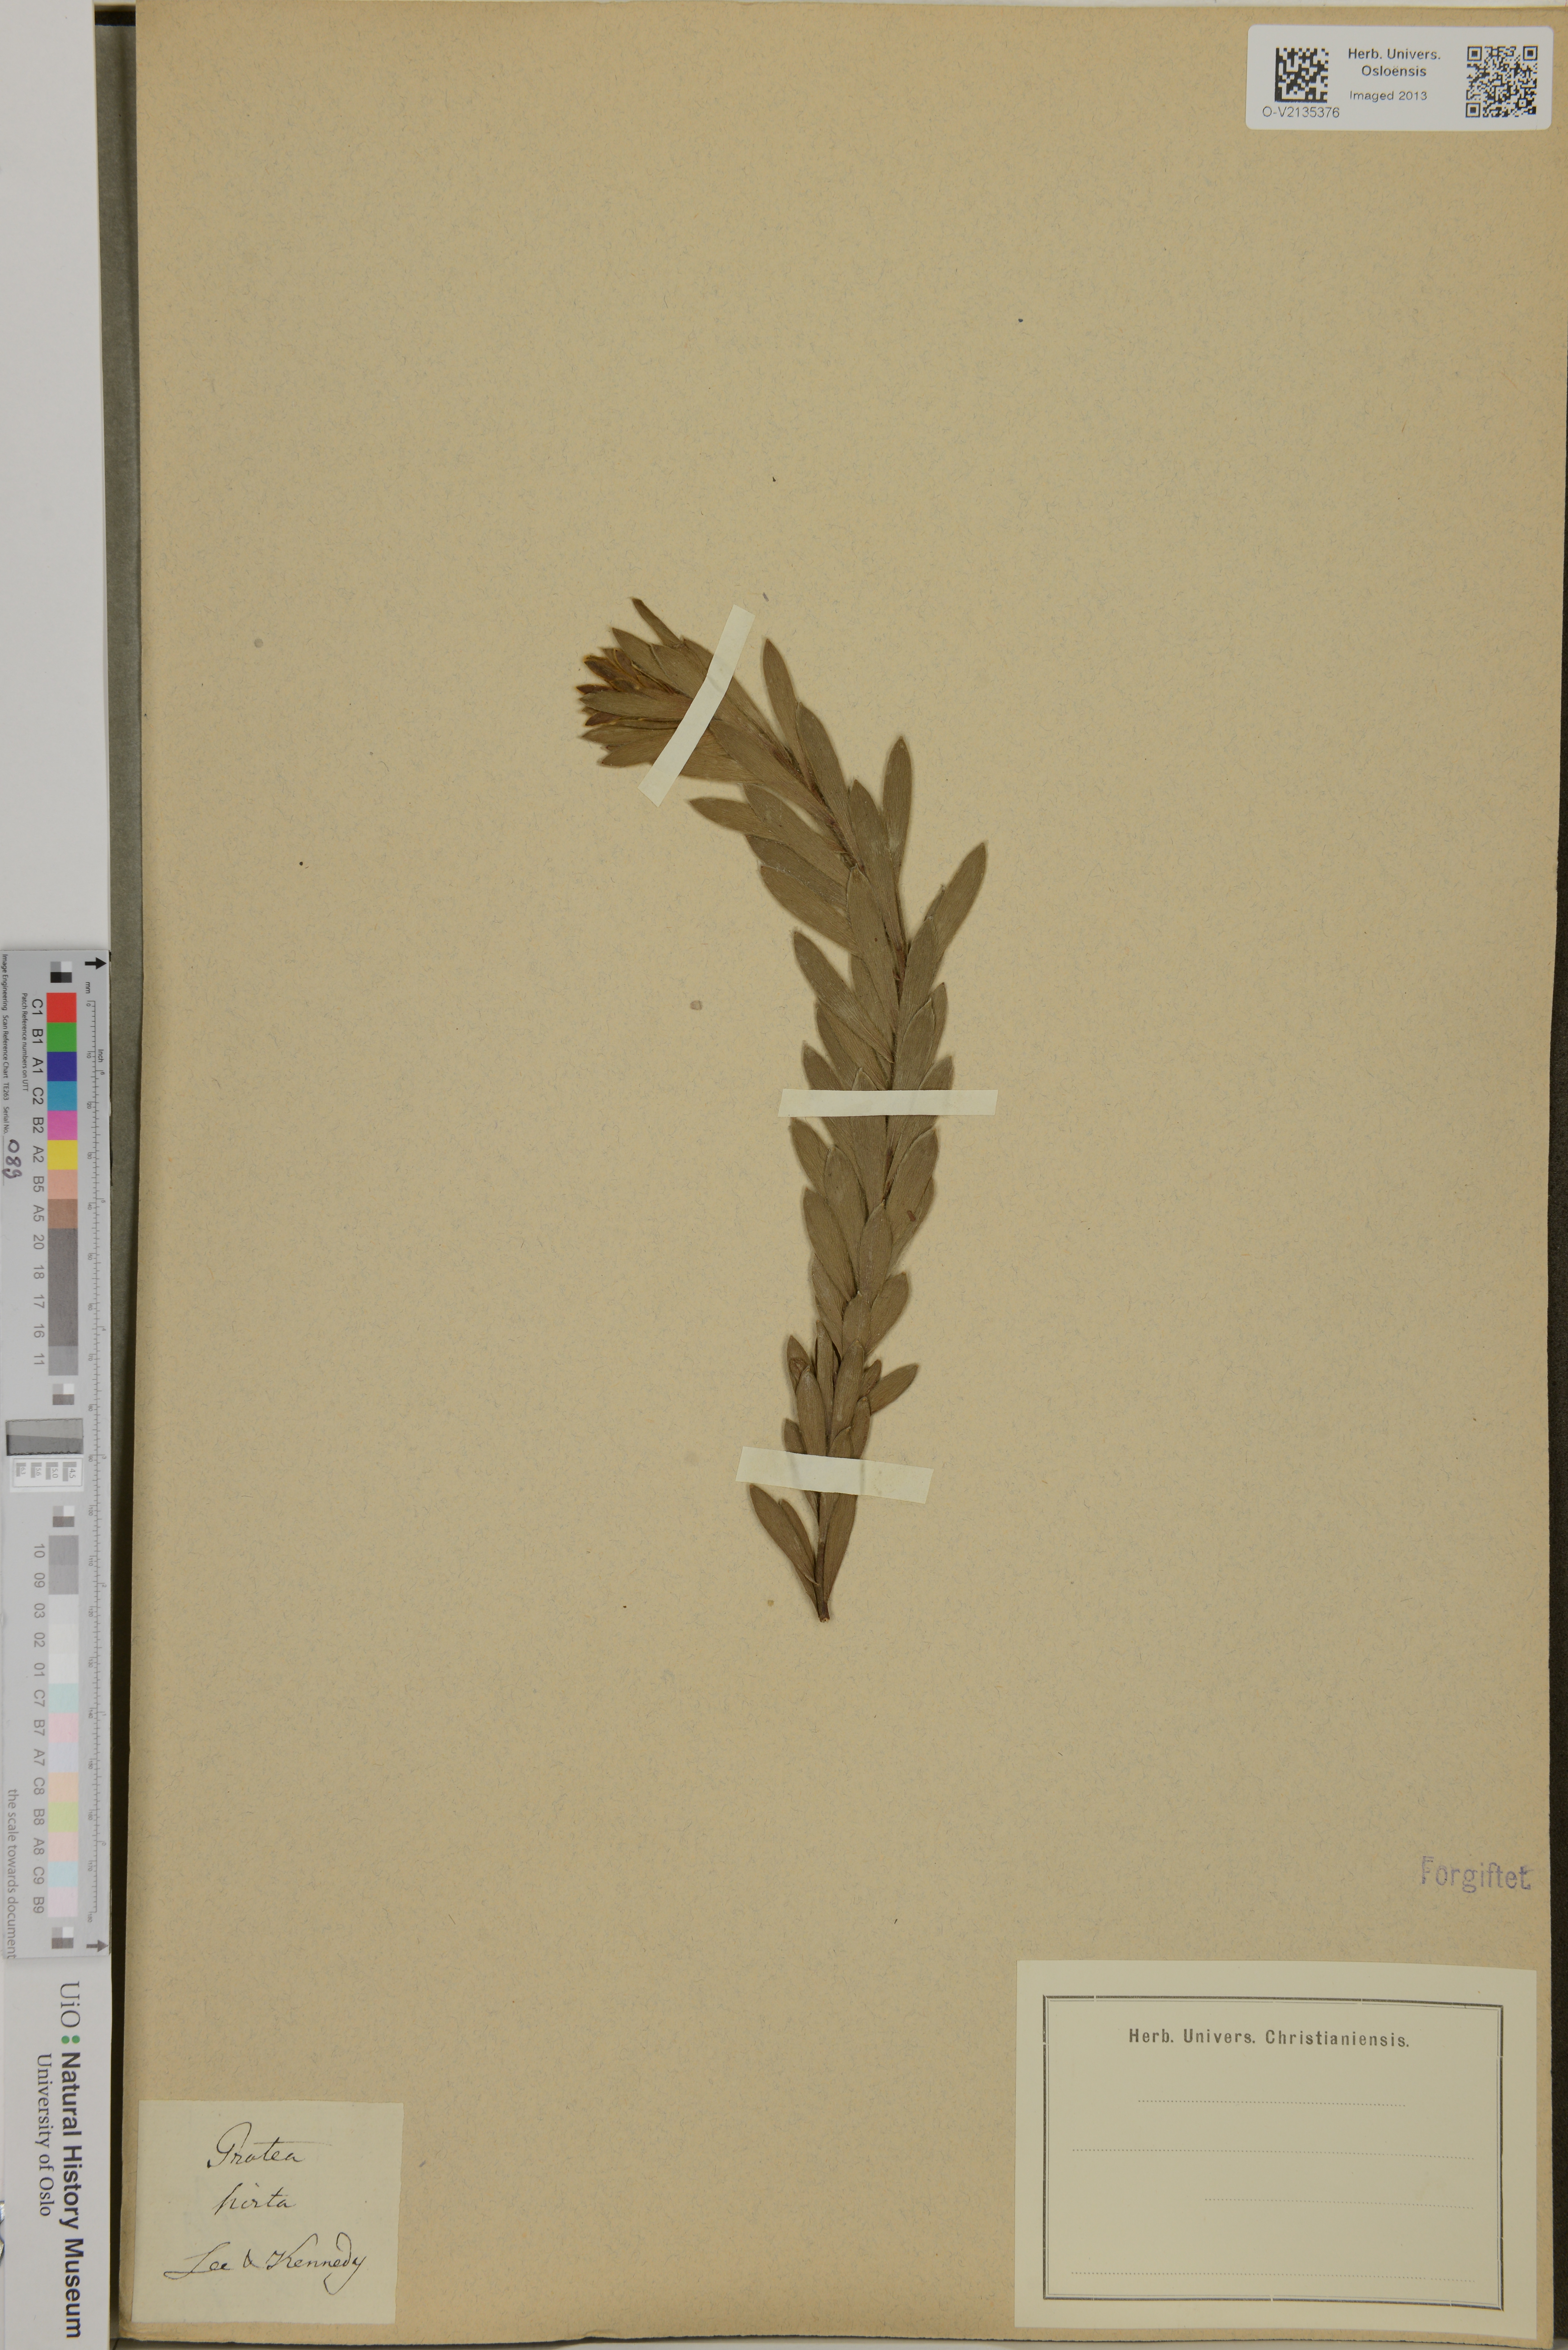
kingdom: Plantae
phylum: Tracheophyta
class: Magnoliopsida
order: Proteales
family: Proteaceae
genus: Protea
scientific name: Protea welwitschii
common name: Cluster-head protea
